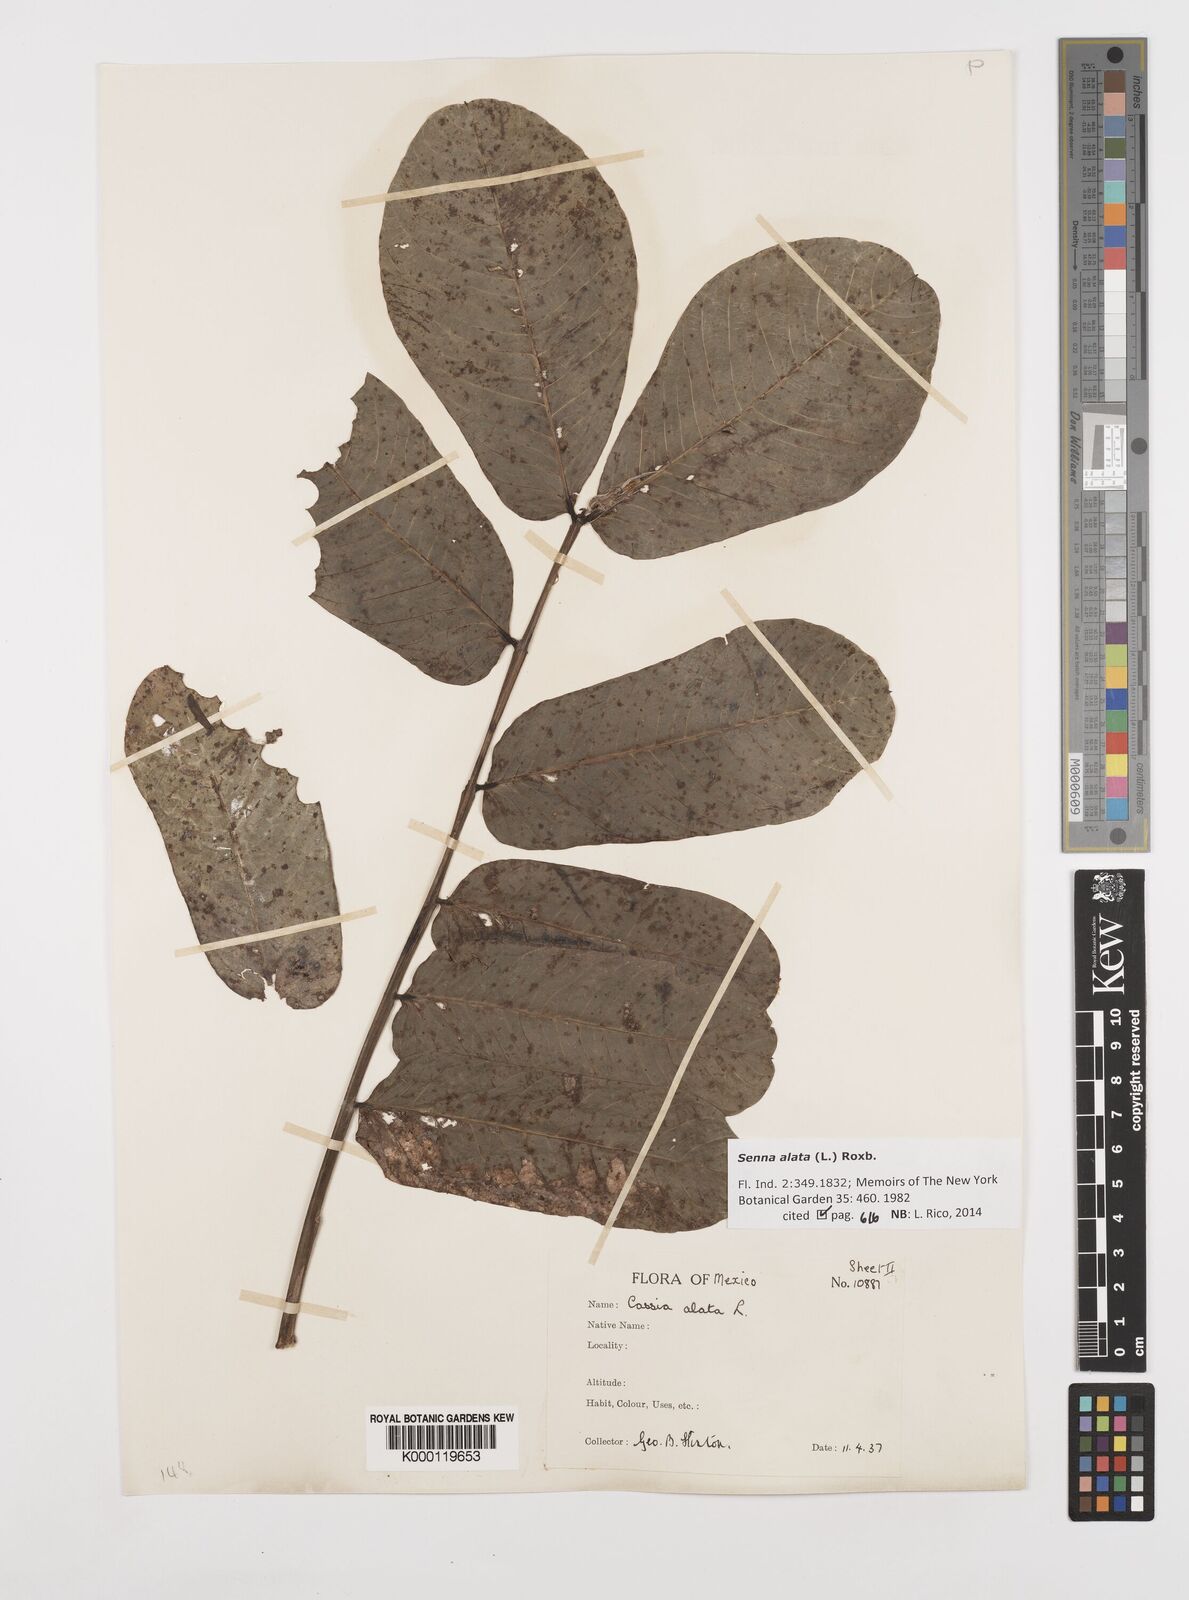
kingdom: Plantae
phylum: Tracheophyta
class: Magnoliopsida
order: Fabales
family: Fabaceae
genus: Senna
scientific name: Senna alata
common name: Emperor's candlesticks
